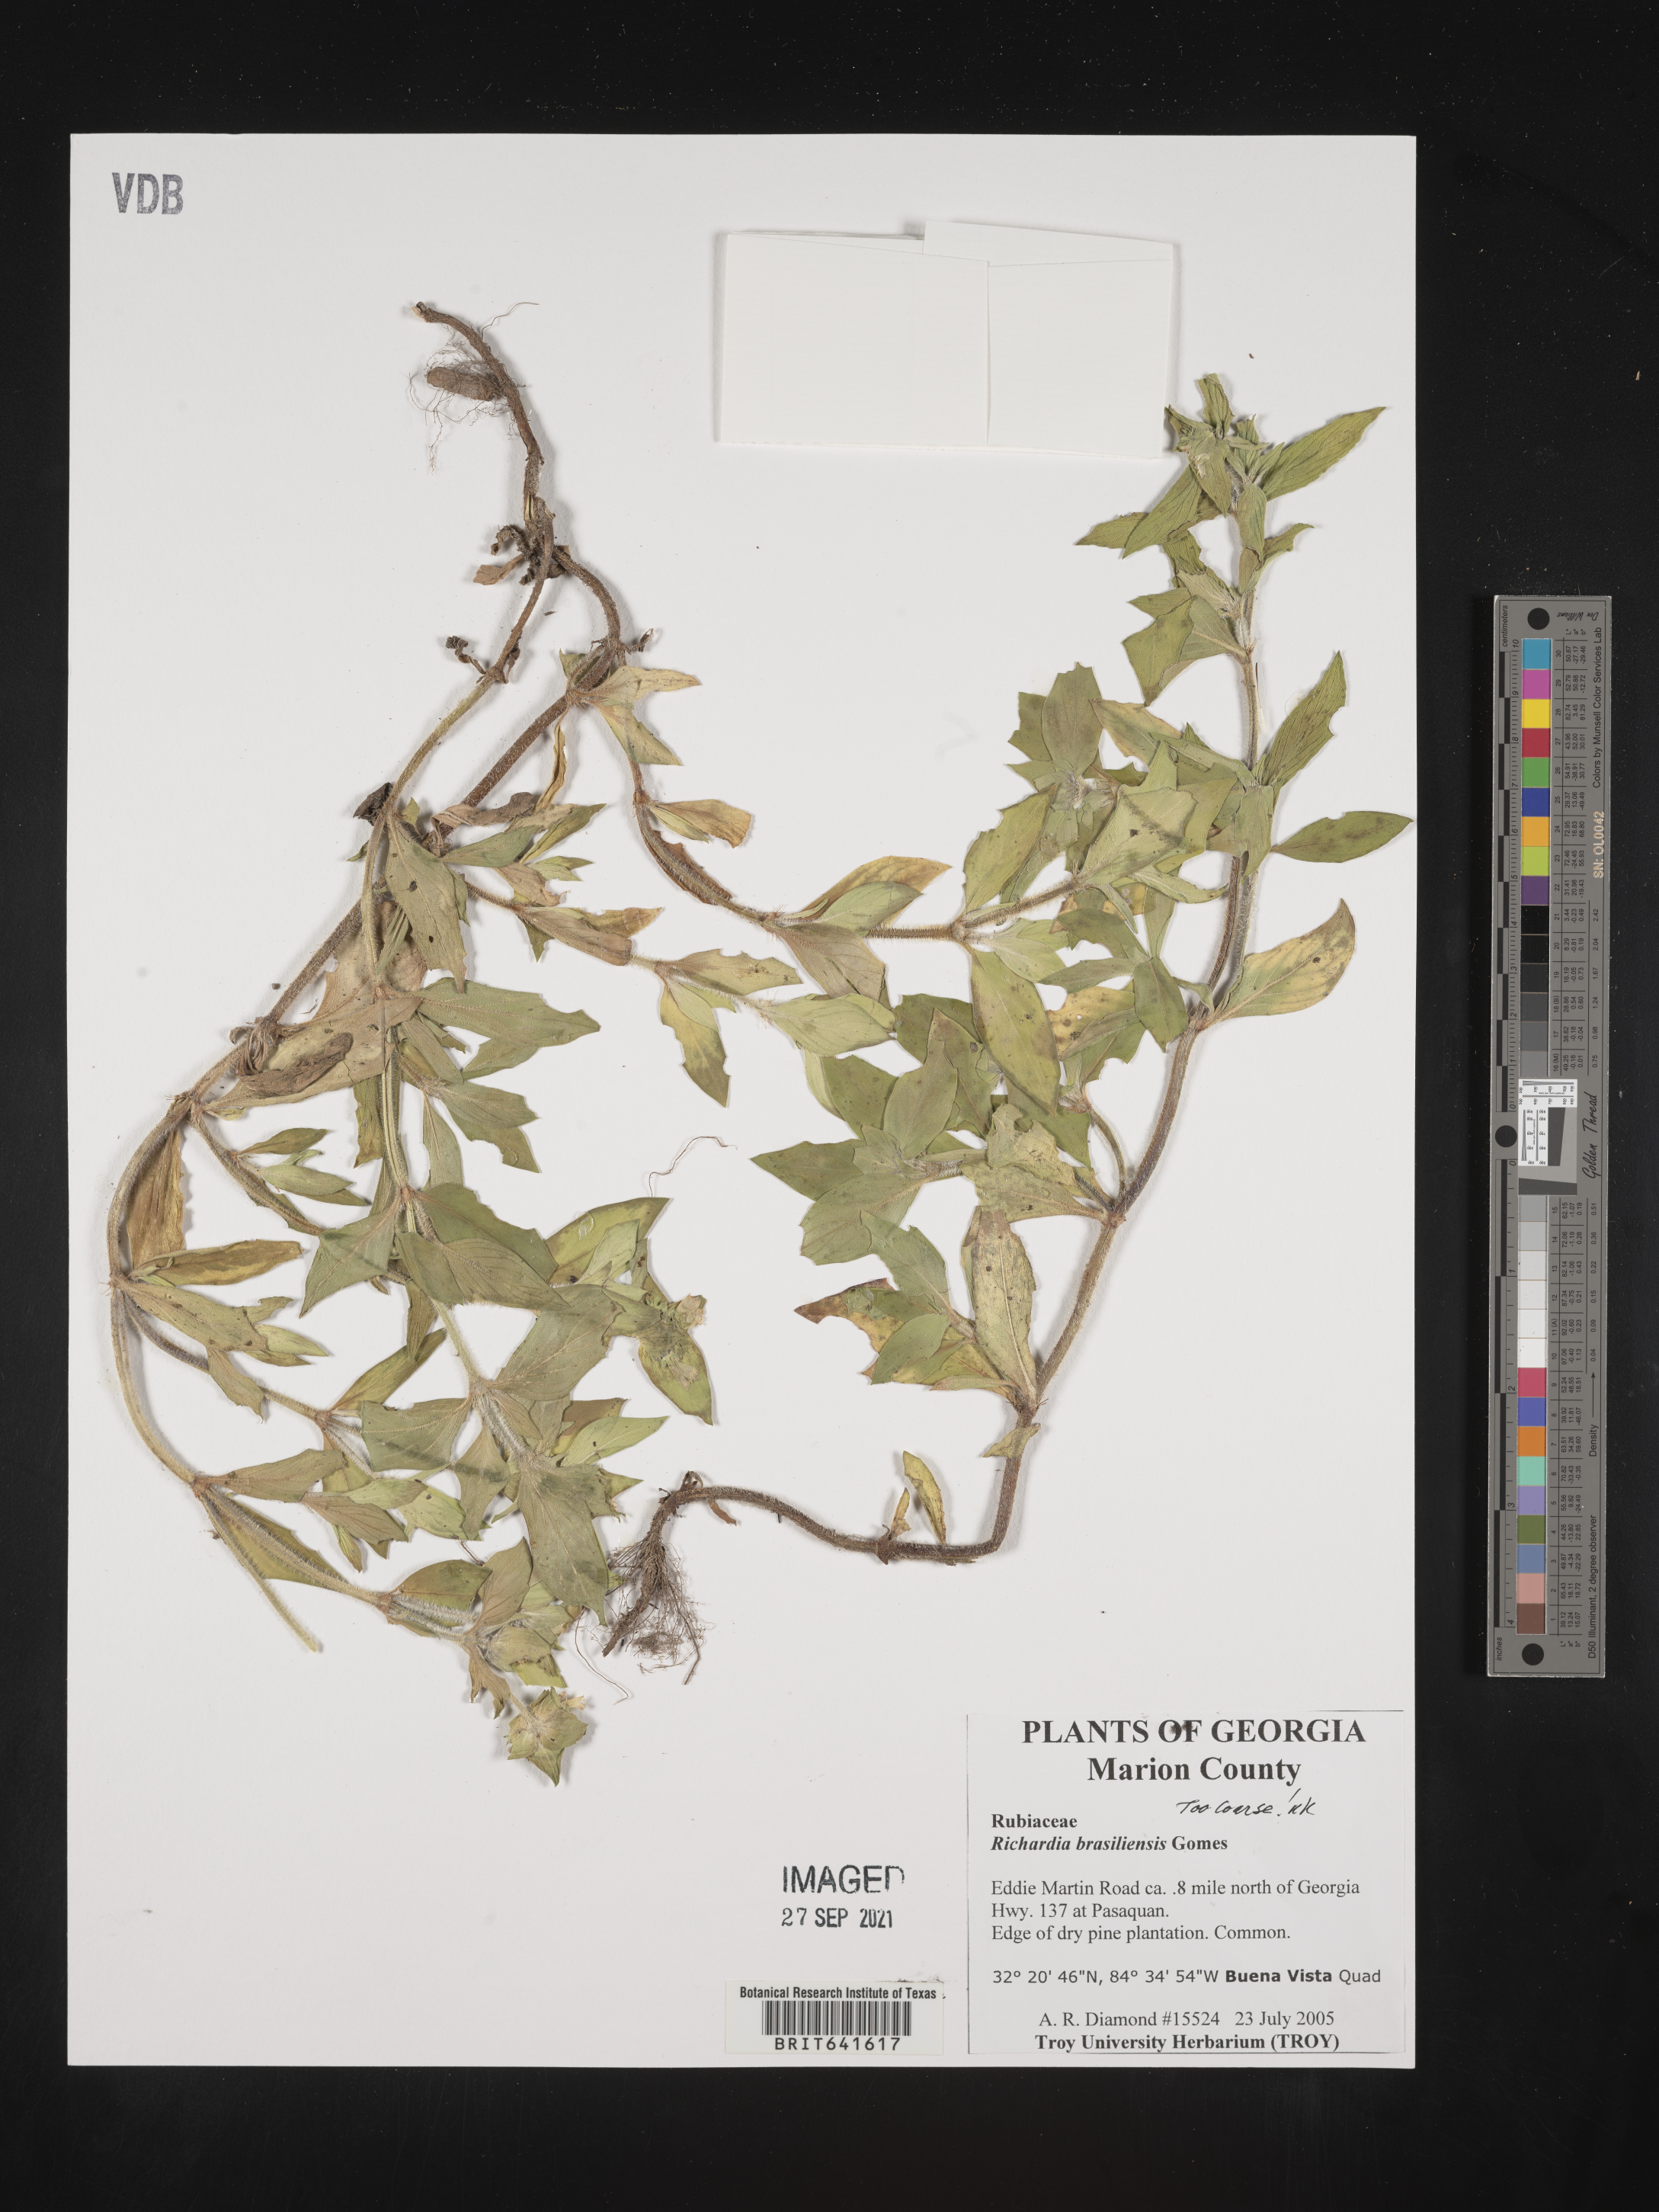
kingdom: Plantae
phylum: Tracheophyta
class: Magnoliopsida
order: Gentianales
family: Rubiaceae
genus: Richardia
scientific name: Richardia brasiliensis
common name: Tropical mexican clover
